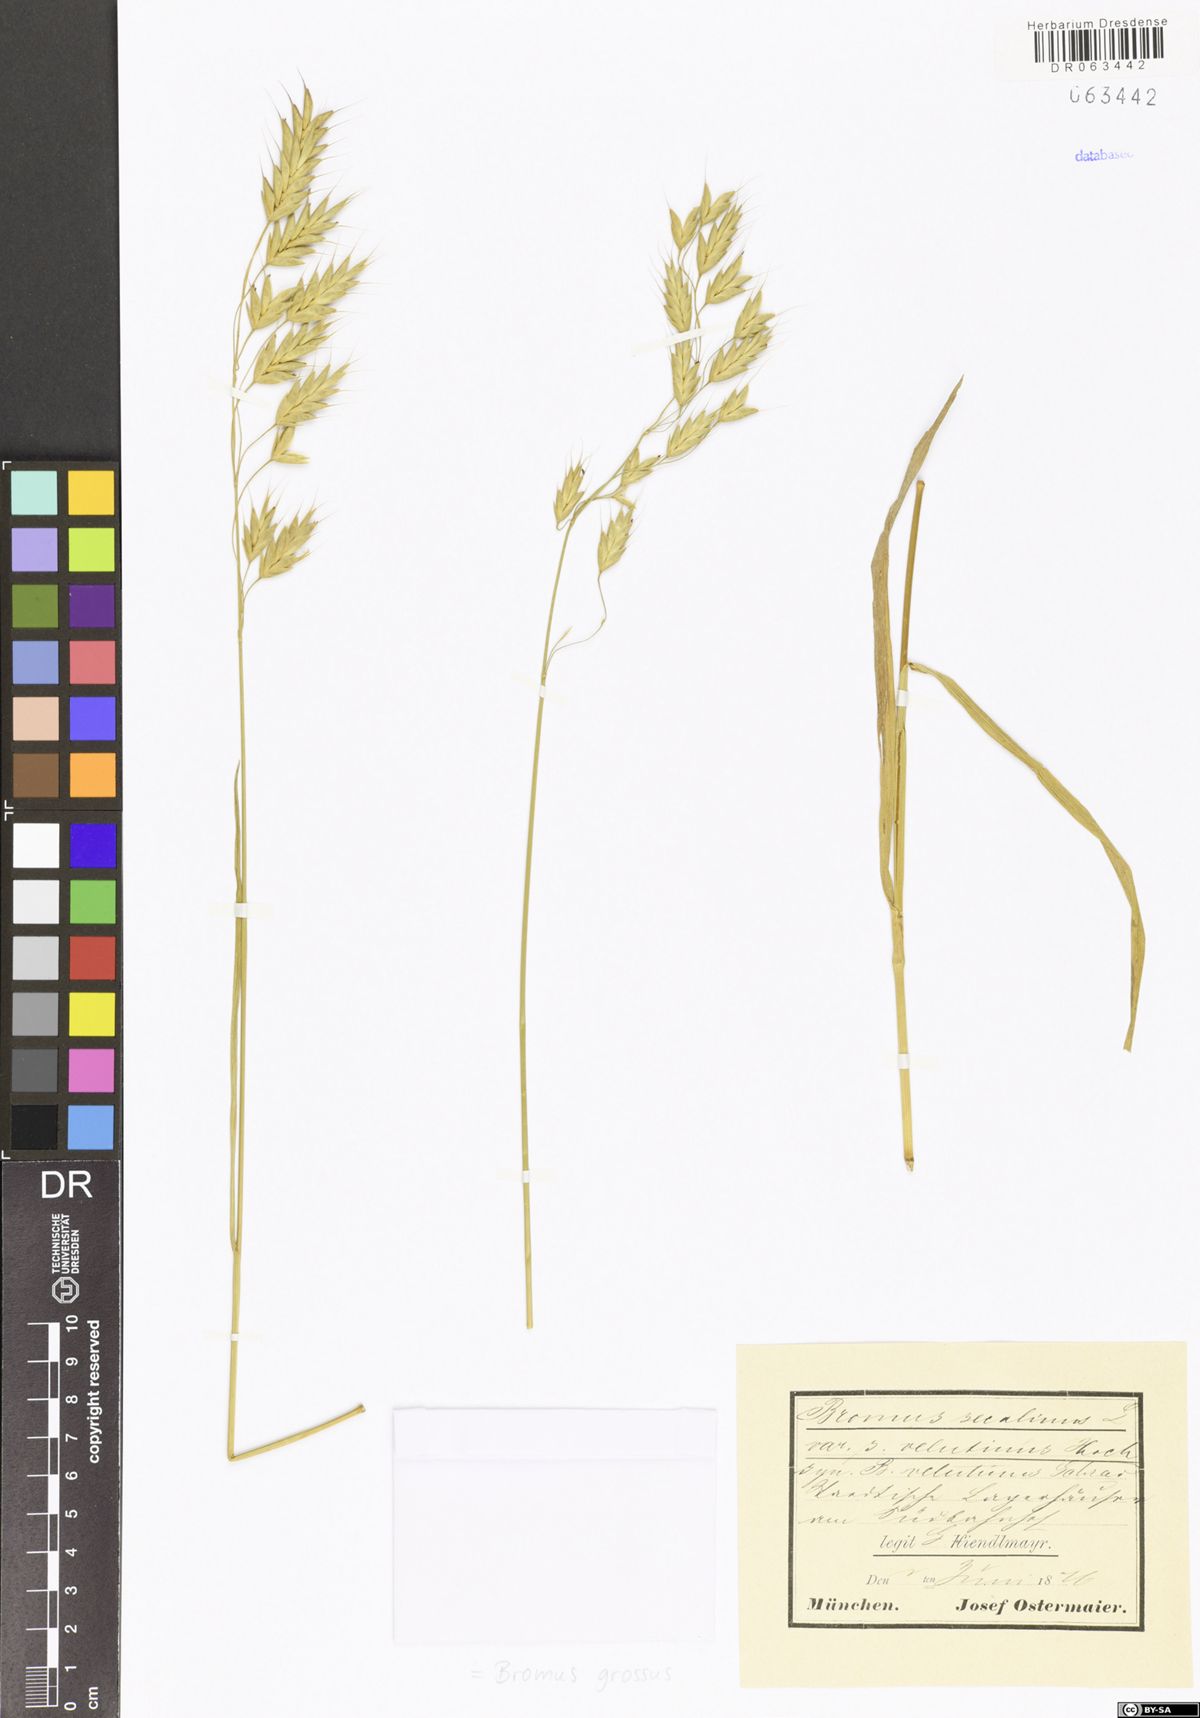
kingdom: Plantae
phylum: Tracheophyta
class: Liliopsida
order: Poales
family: Poaceae
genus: Bromus
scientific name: Bromus grossus
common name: Whiskered brome
